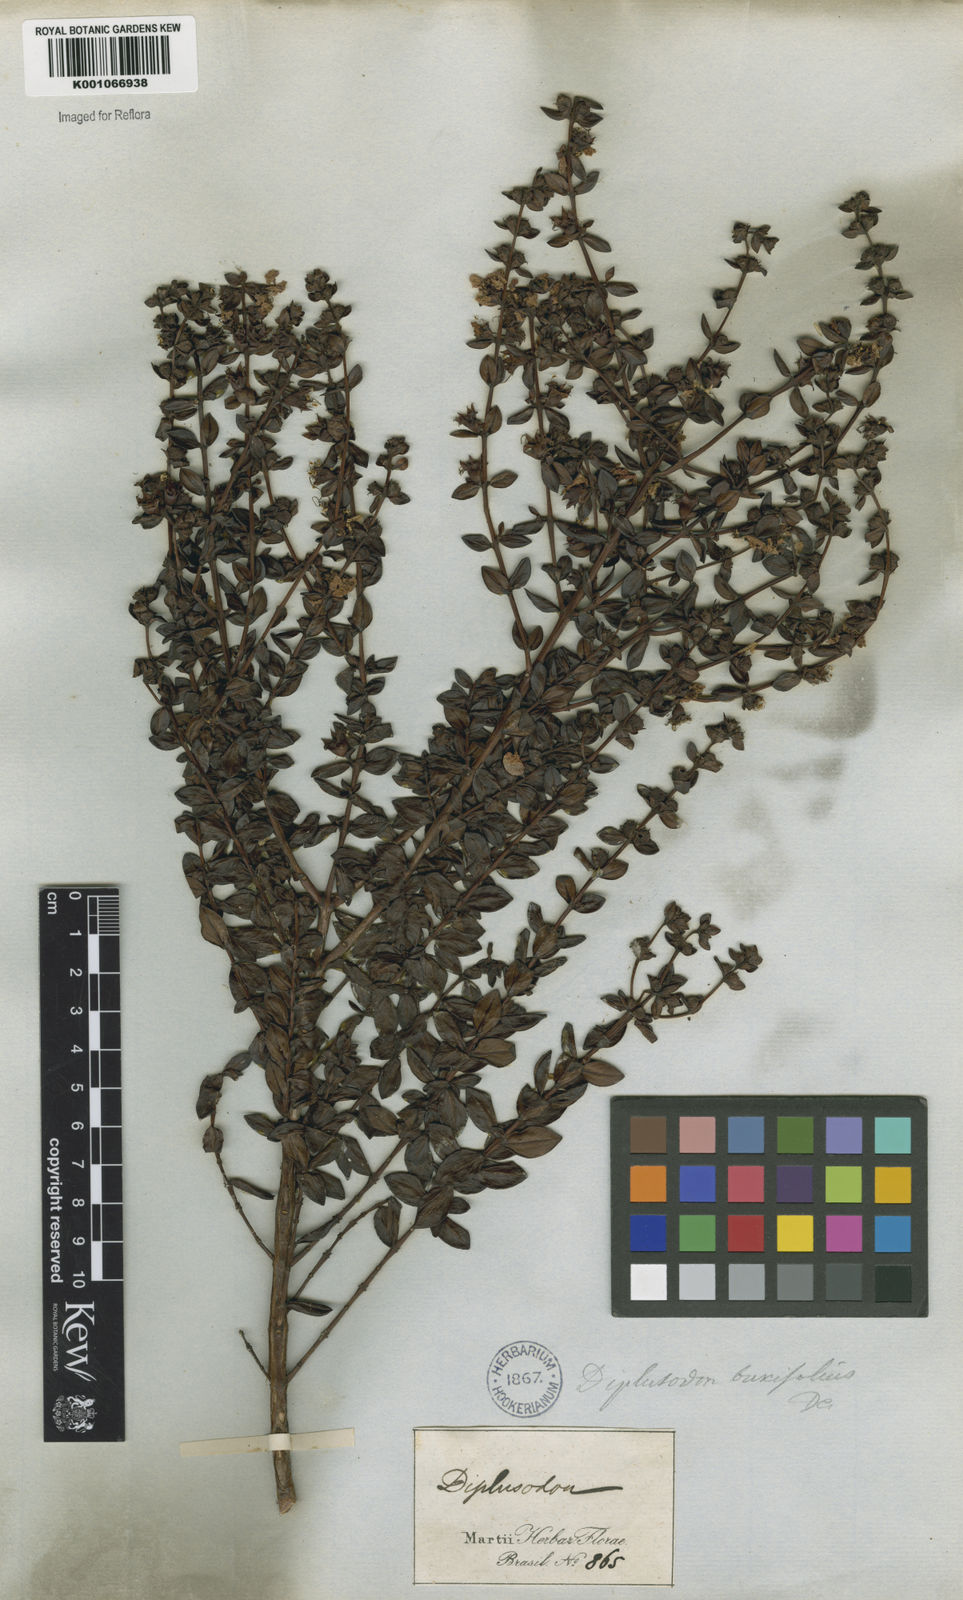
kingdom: Plantae
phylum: Tracheophyta
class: Magnoliopsida
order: Myrtales
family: Lythraceae
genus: Diplusodon
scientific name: Diplusodon buxifolius
